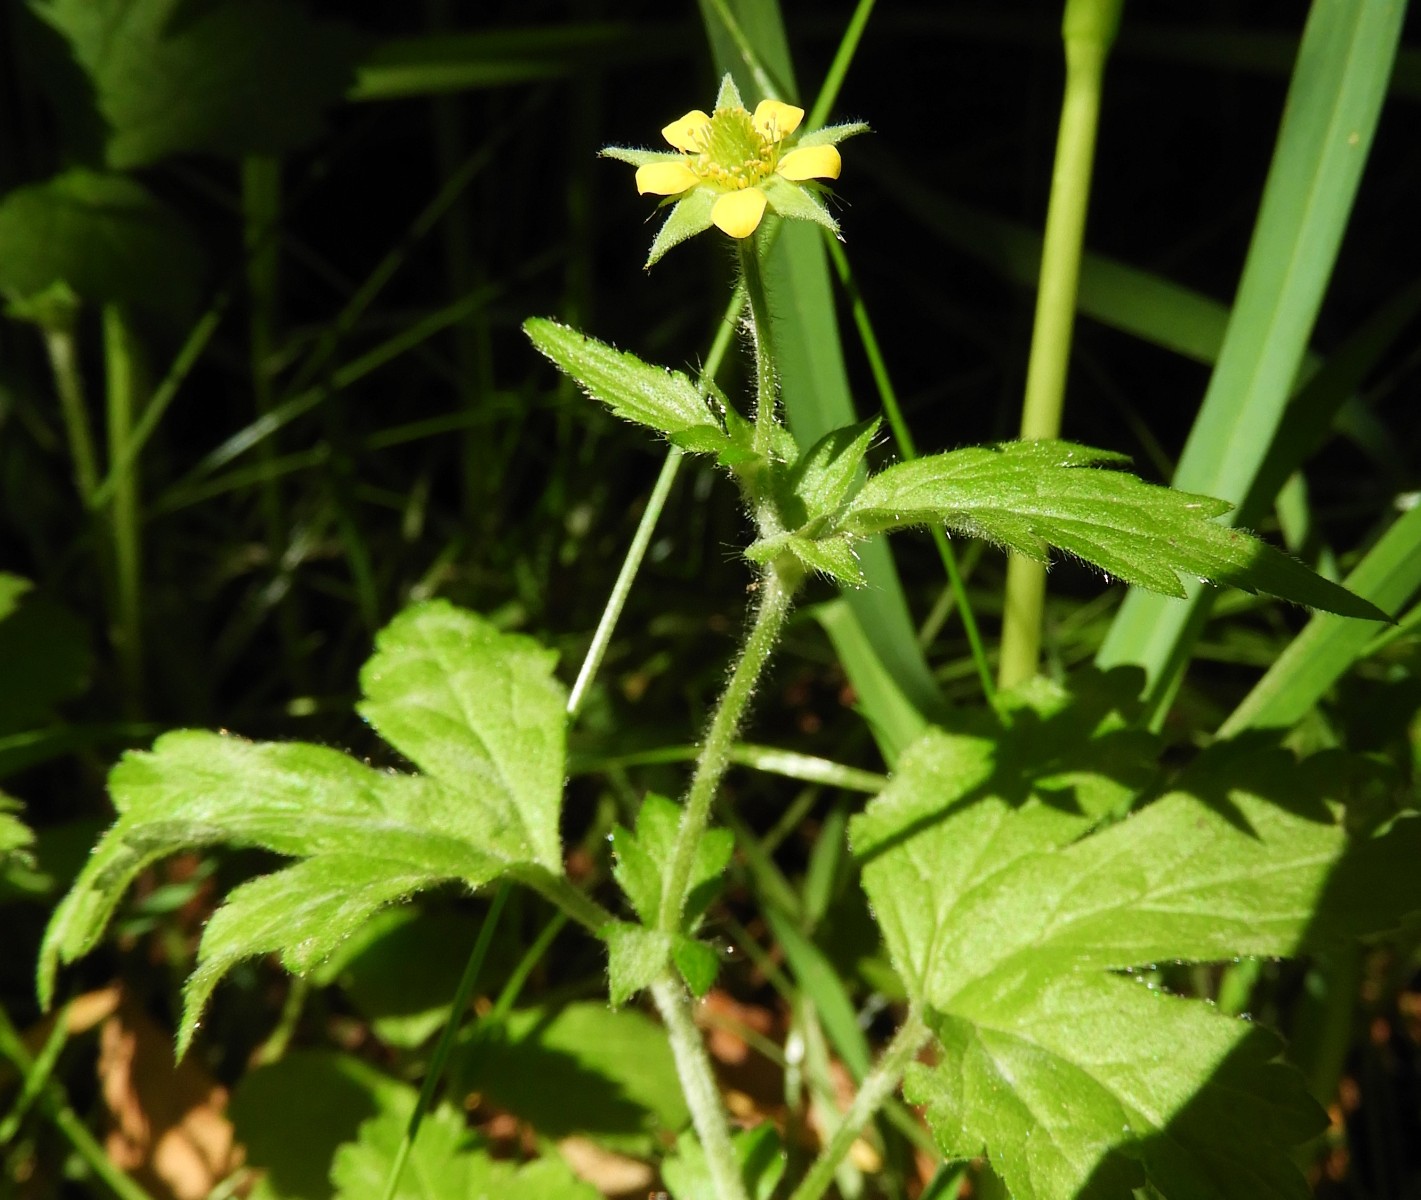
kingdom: Fungi
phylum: Ascomycota
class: Leotiomycetes
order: Helotiales
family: Erysiphaceae
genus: Podosphaera
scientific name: Podosphaera aphanis
